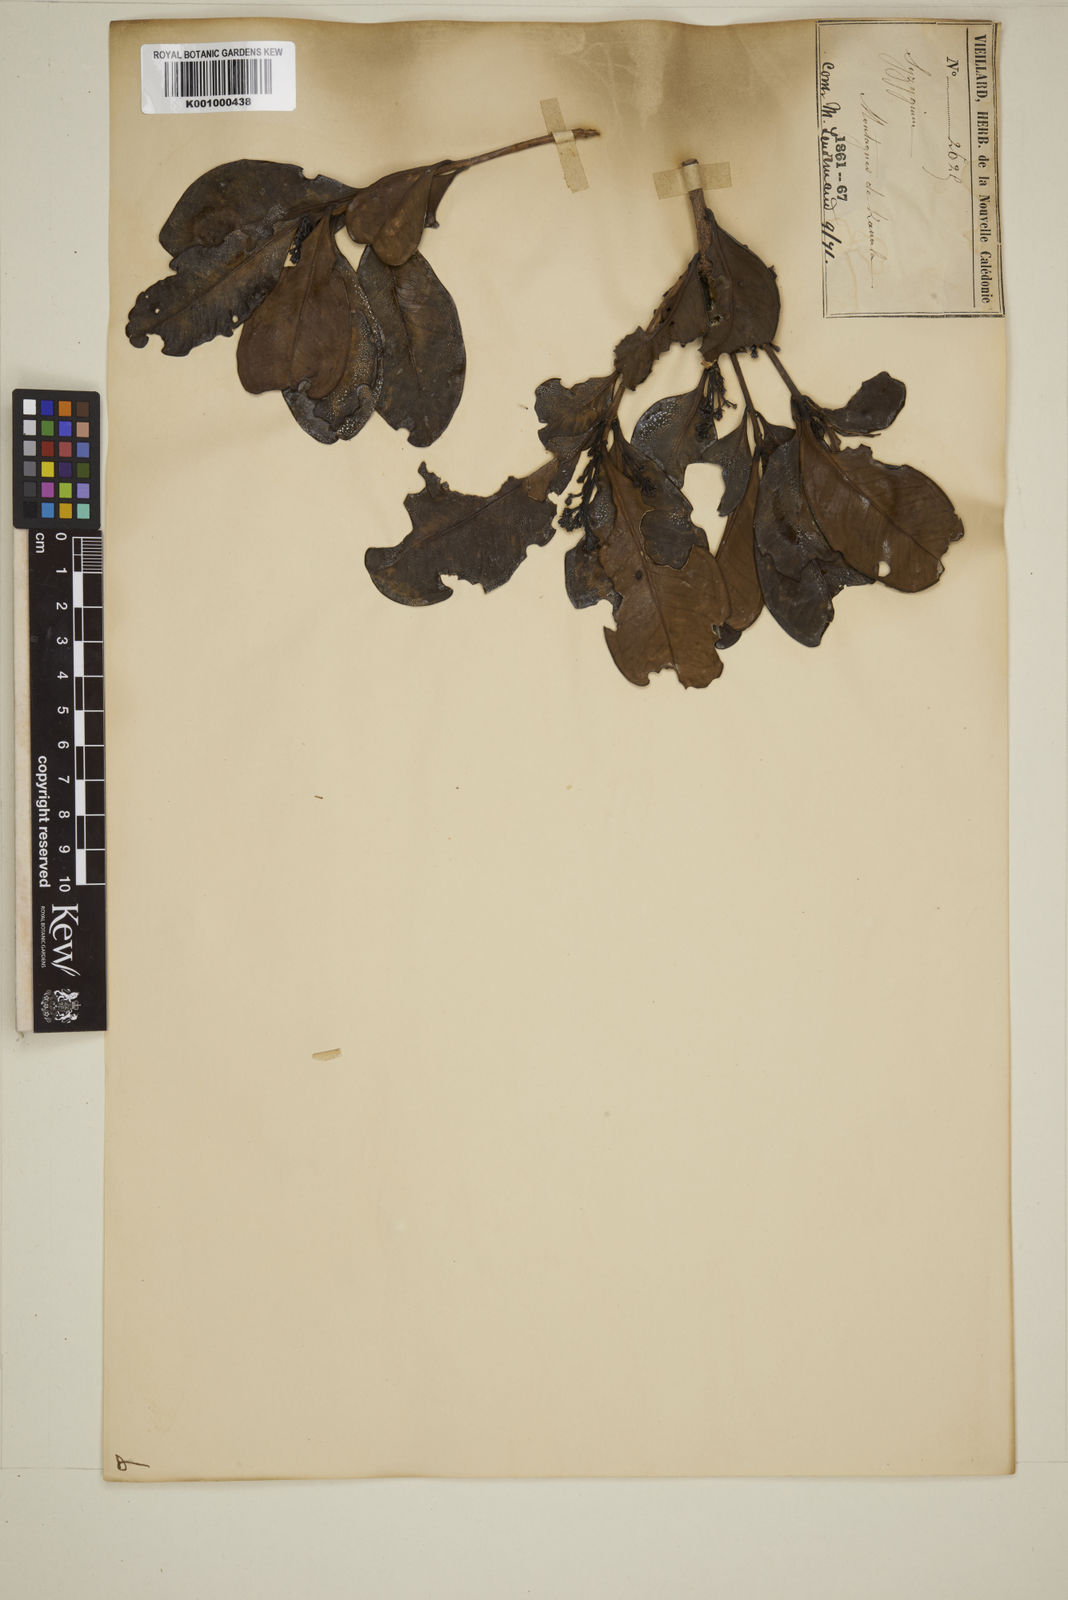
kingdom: Plantae
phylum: Tracheophyta
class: Magnoliopsida
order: Myrtales
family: Myrtaceae
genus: Eugenia
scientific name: Eugenia
